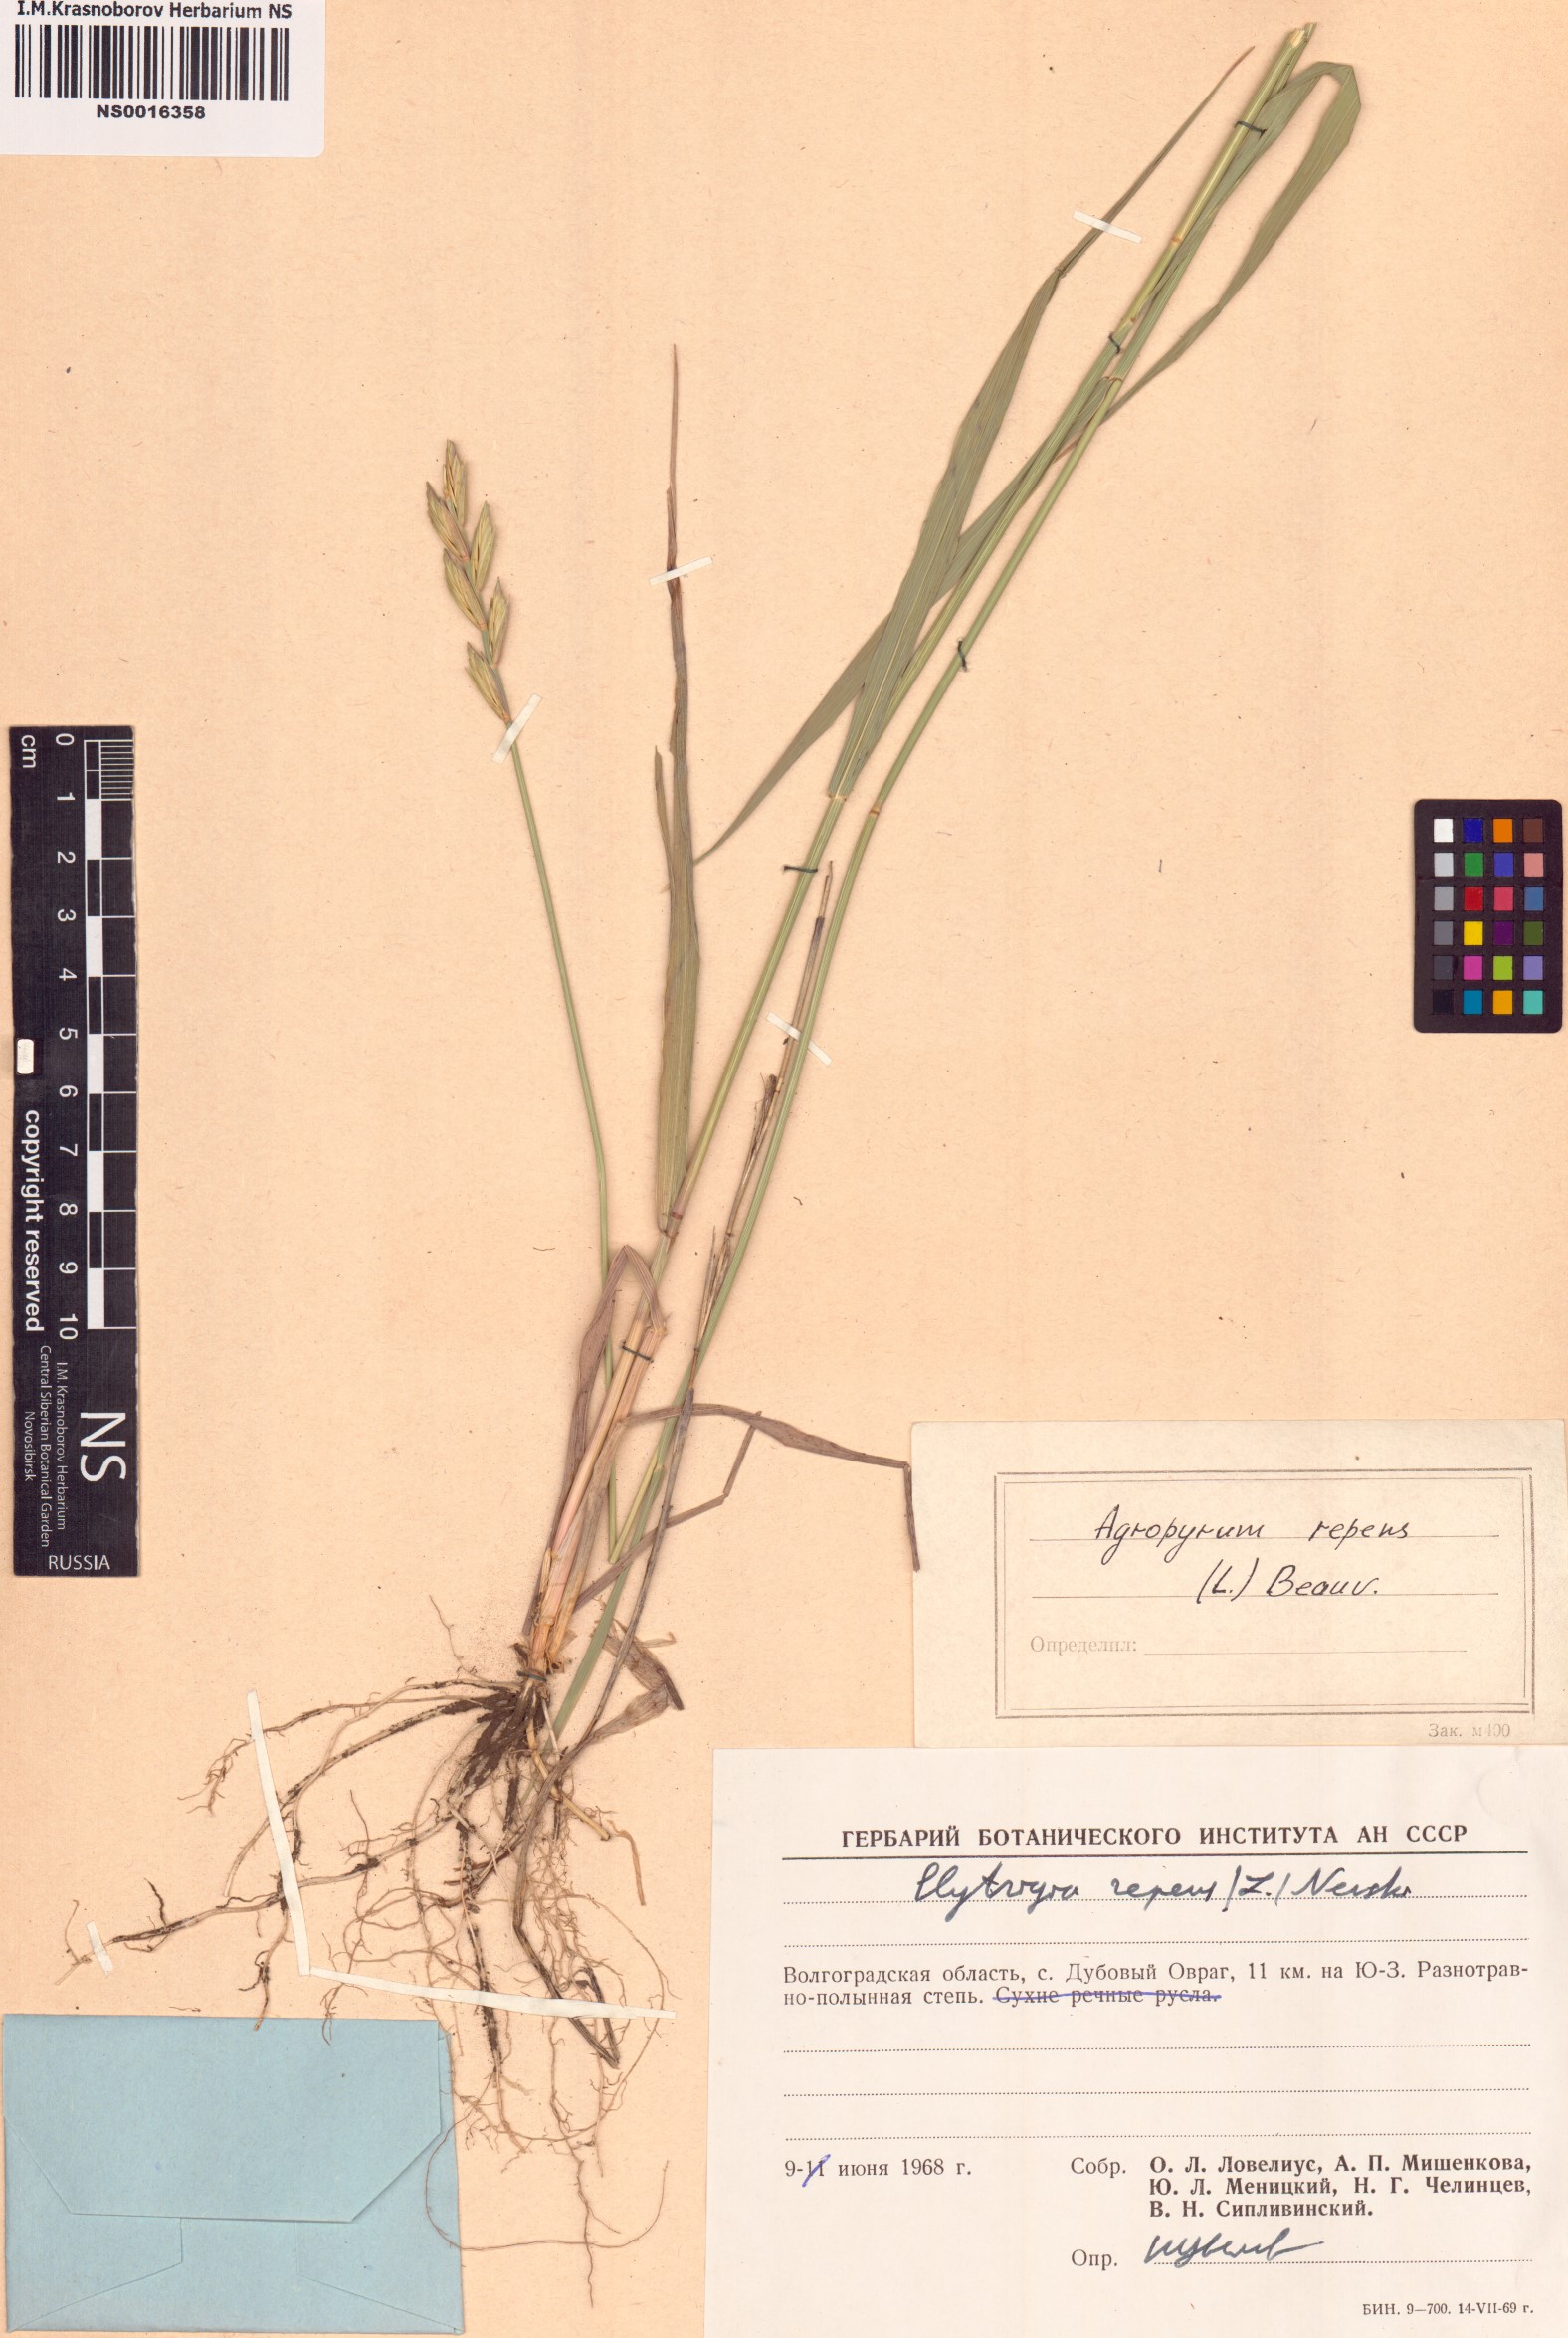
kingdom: Plantae
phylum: Tracheophyta
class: Liliopsida
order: Poales
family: Poaceae
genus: Elymus
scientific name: Elymus repens
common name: Quackgrass
